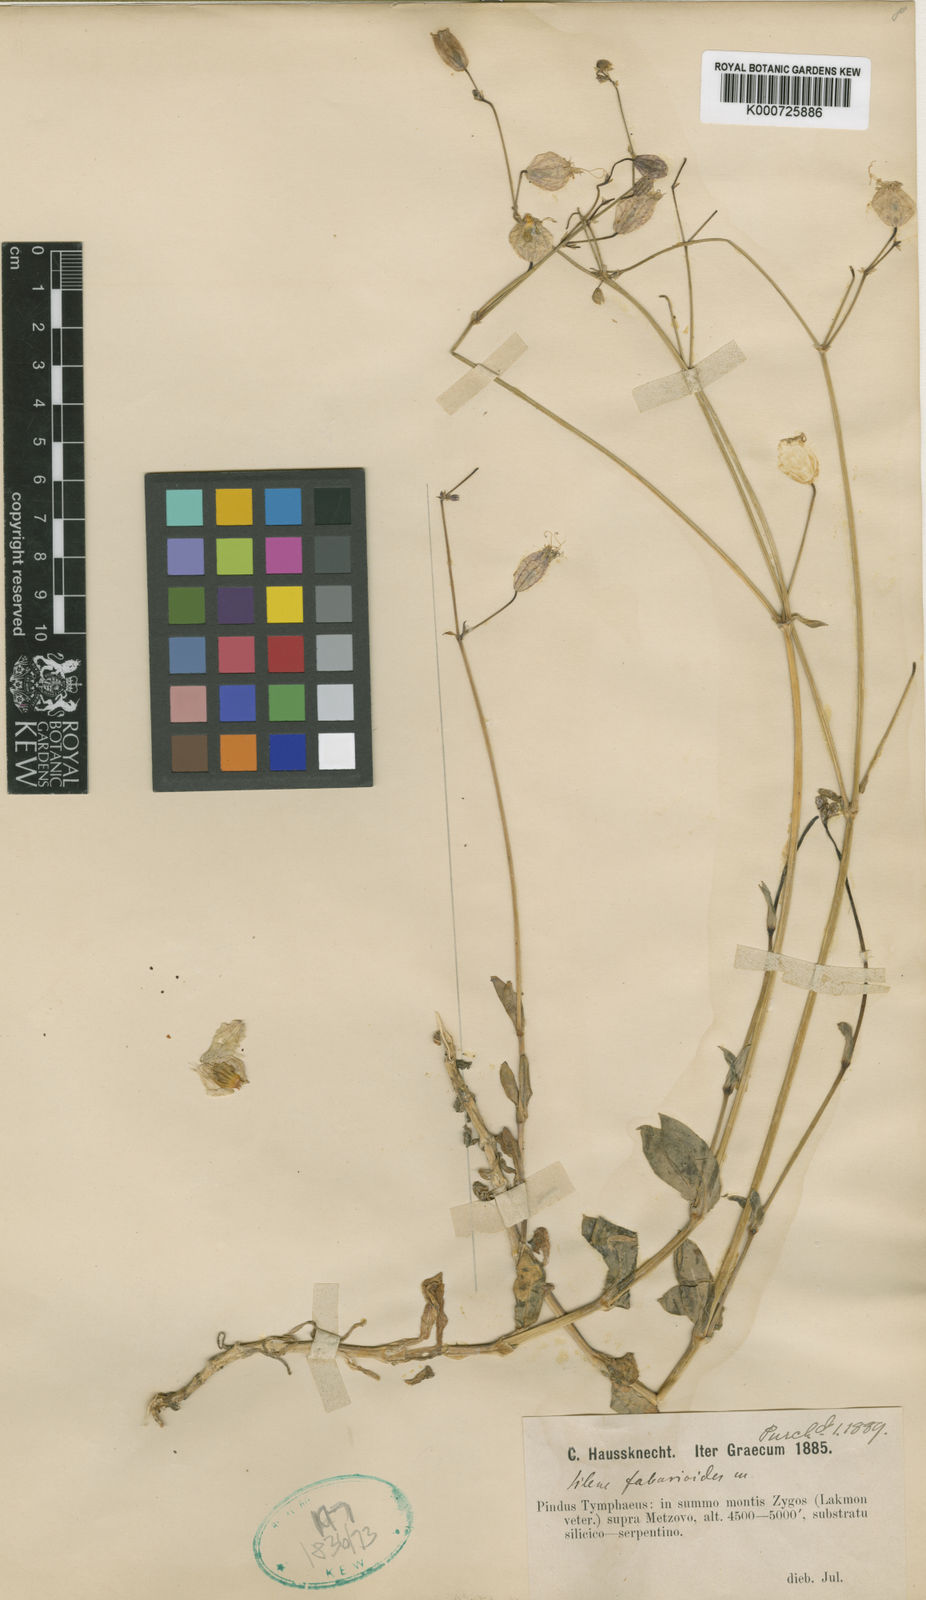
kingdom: Plantae
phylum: Tracheophyta
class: Magnoliopsida
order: Caryophyllales
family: Caryophyllaceae
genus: Silene
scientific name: Silene fabarioides
